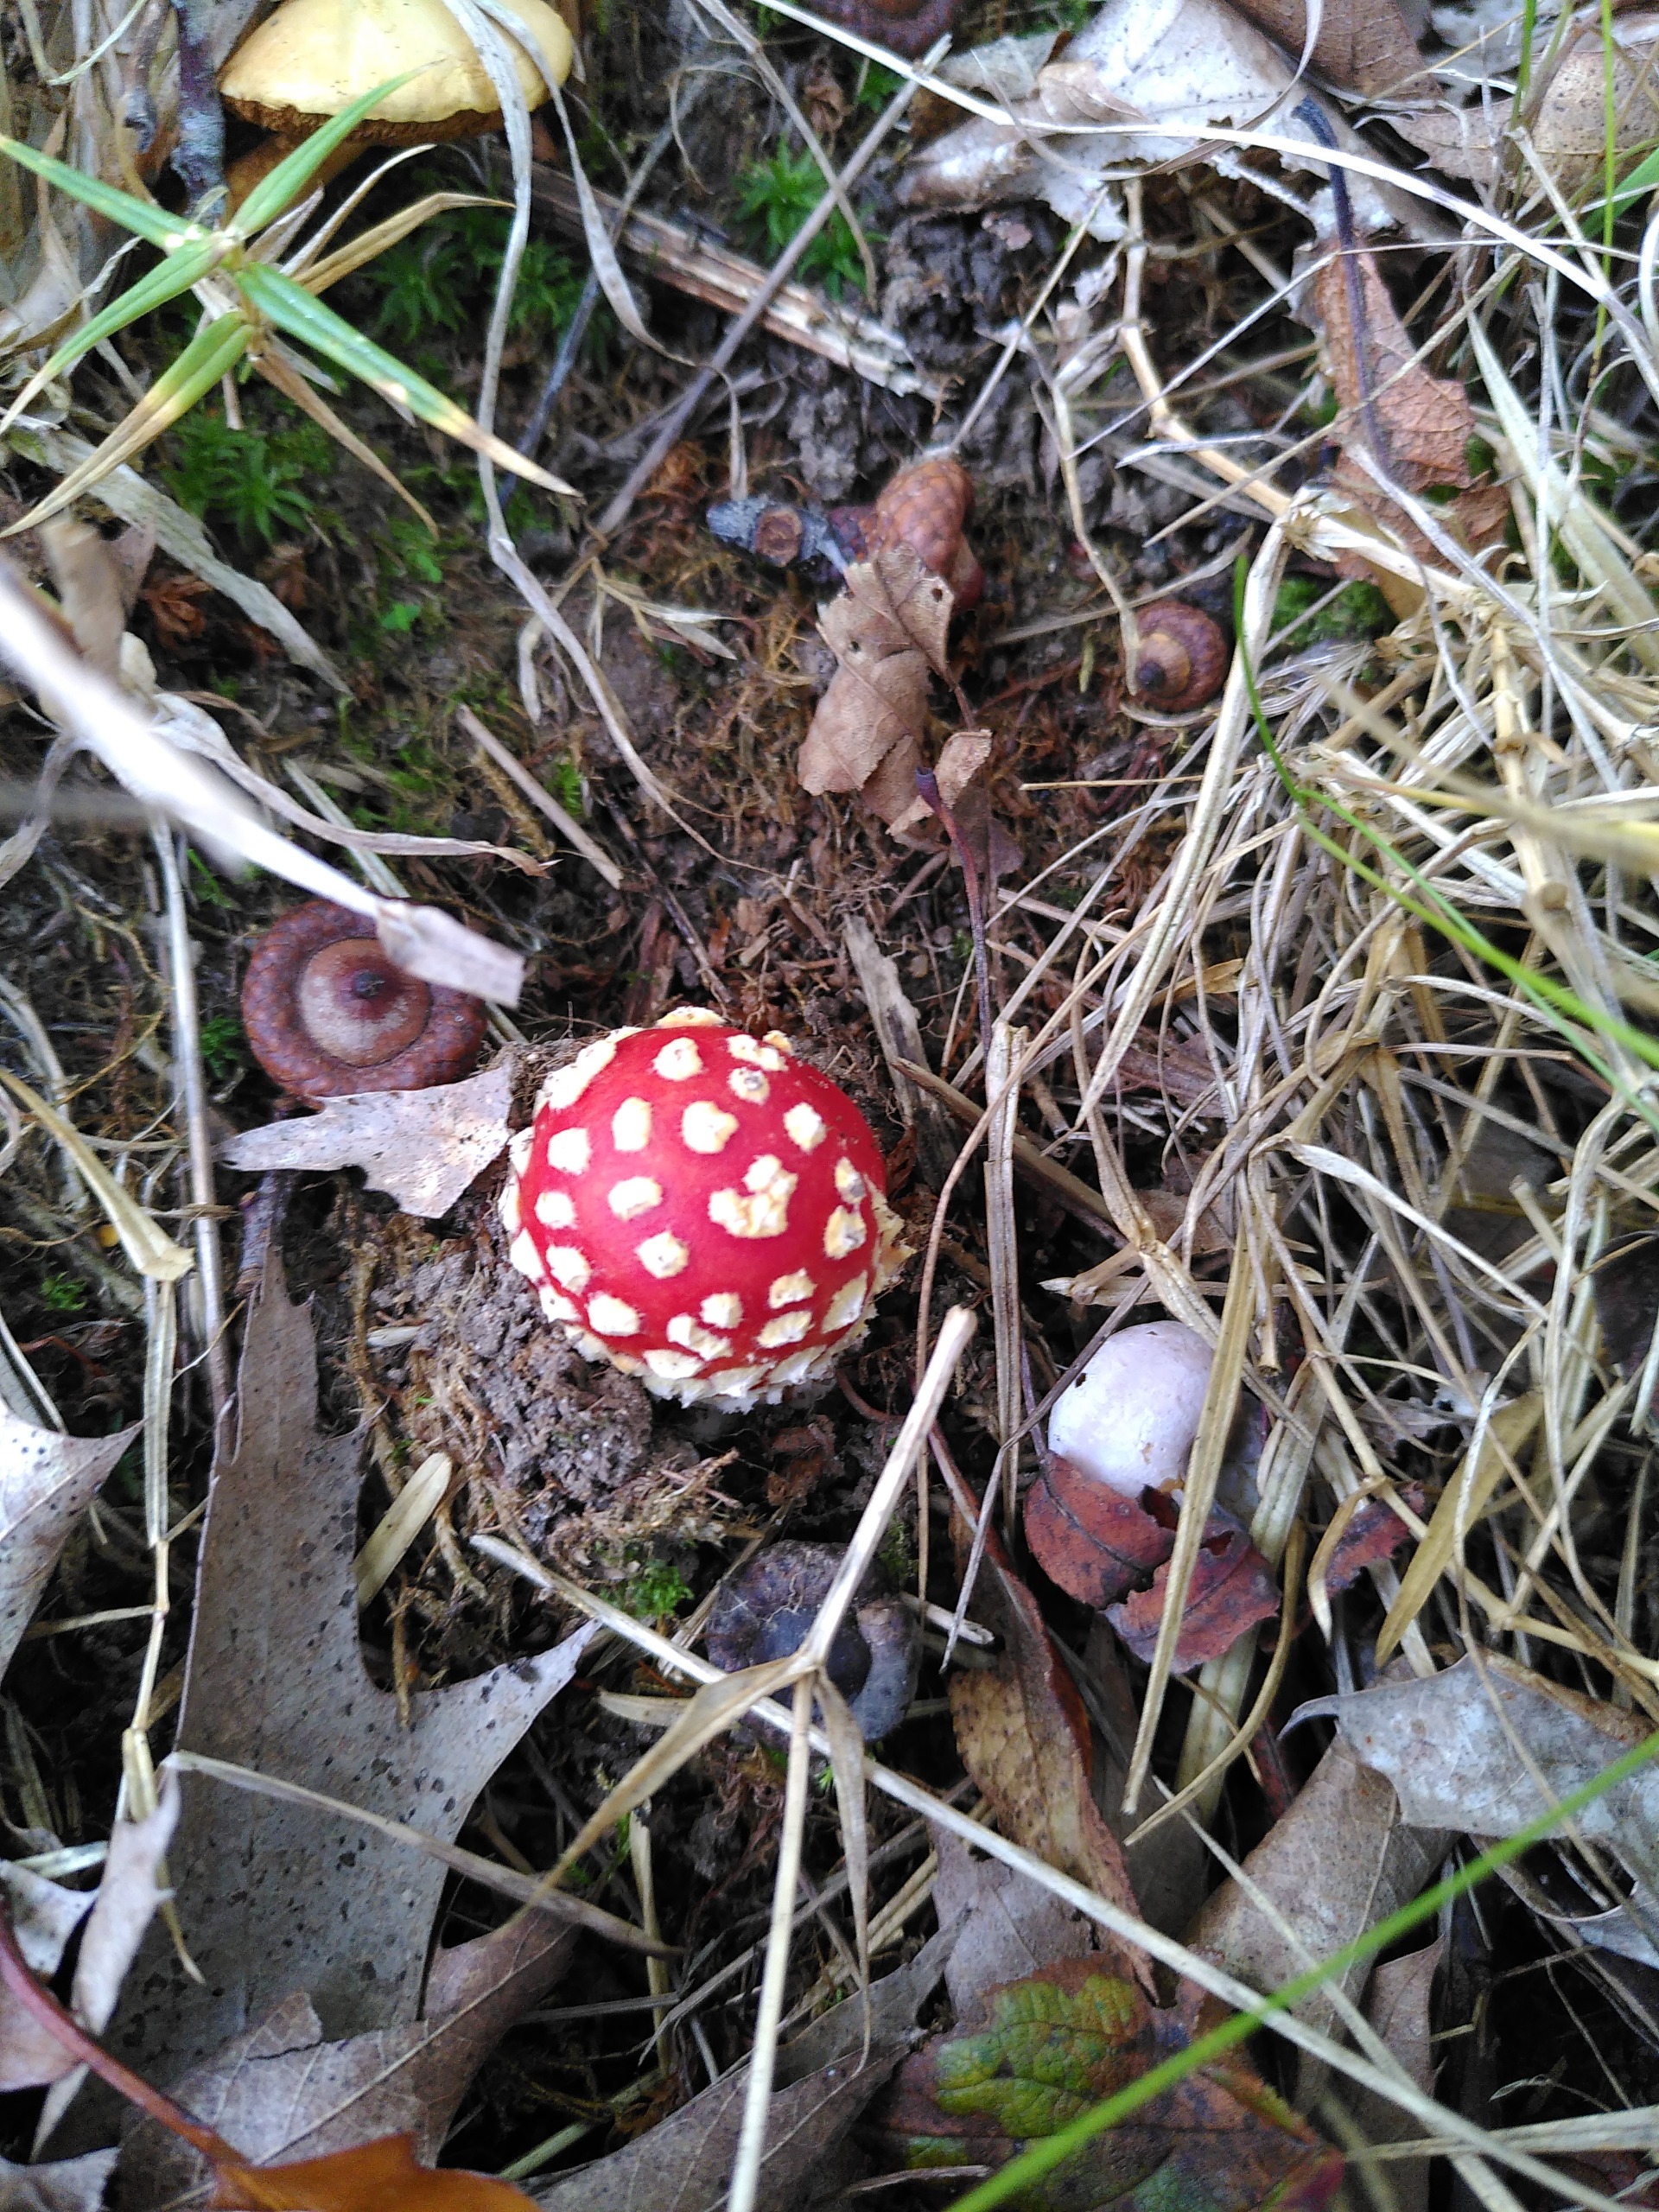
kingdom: Fungi
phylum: Basidiomycota
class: Agaricomycetes
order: Agaricales
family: Amanitaceae
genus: Amanita
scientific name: Amanita muscaria
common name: Rød fluesvamp
